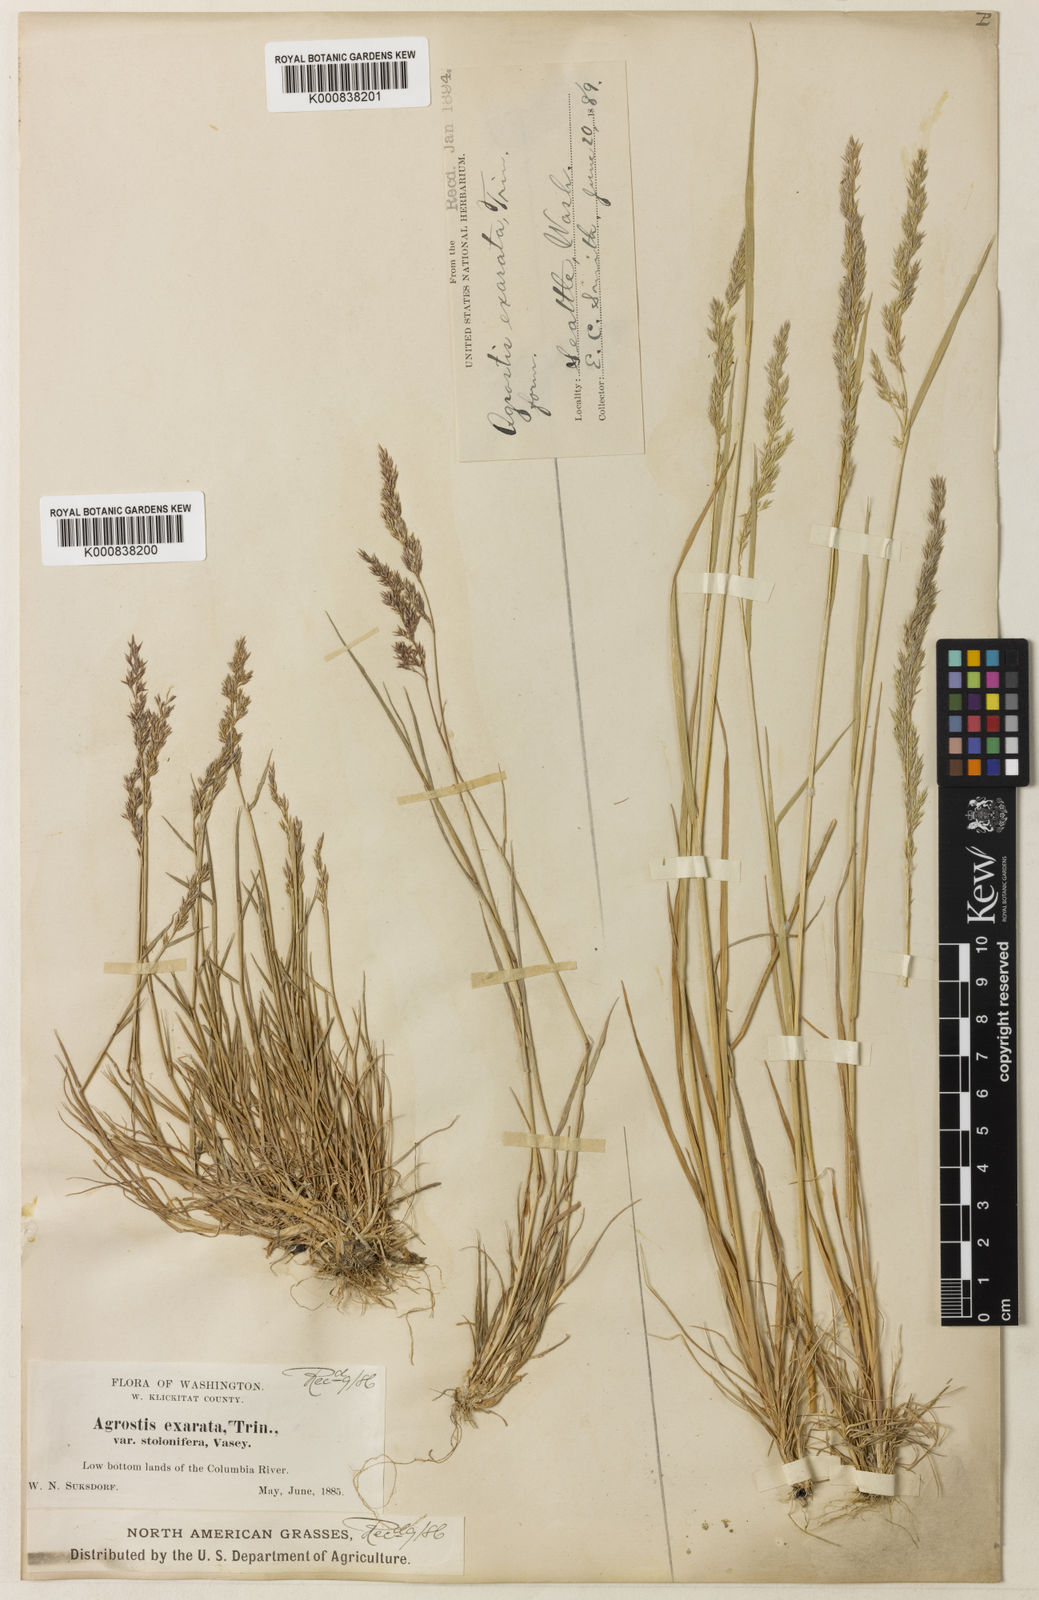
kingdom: Plantae
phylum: Tracheophyta
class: Liliopsida
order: Poales
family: Poaceae
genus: Agrostis
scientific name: Agrostis exarata
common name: Spike bent
